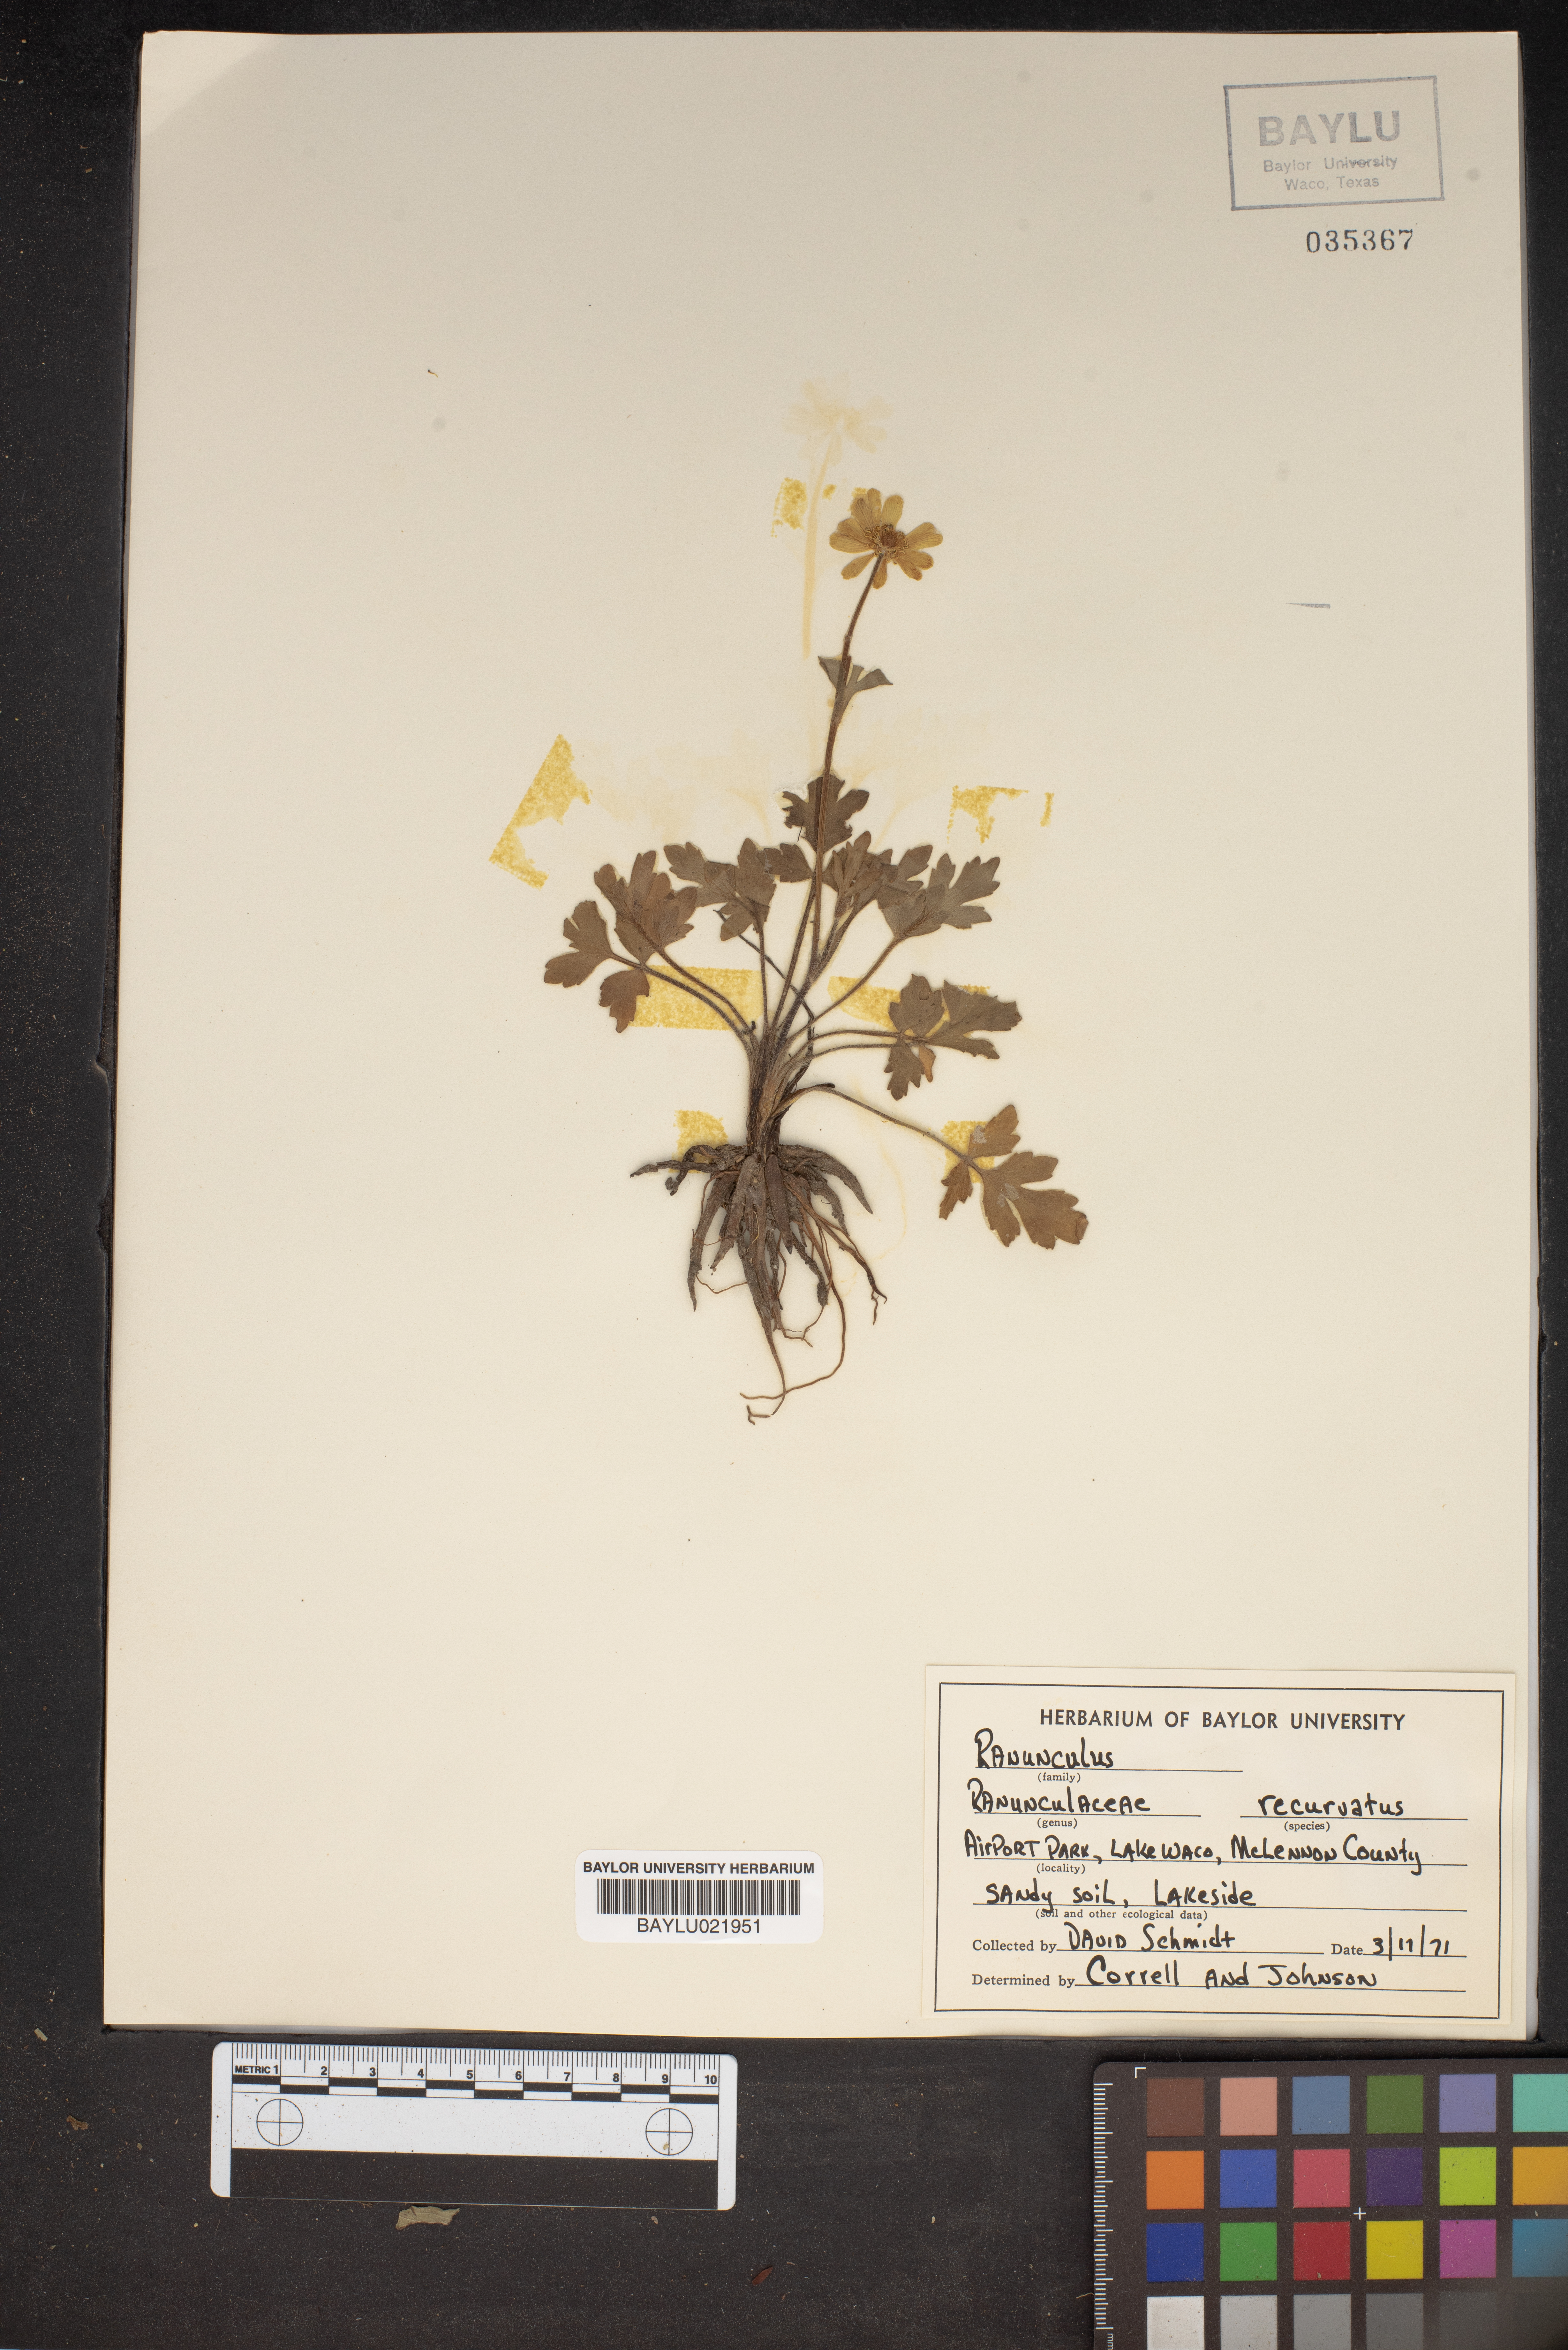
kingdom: Plantae
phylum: Tracheophyta
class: Magnoliopsida
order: Ranunculales
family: Ranunculaceae
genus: Ranunculus
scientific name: Ranunculus recurvatus
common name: Blisterwort
